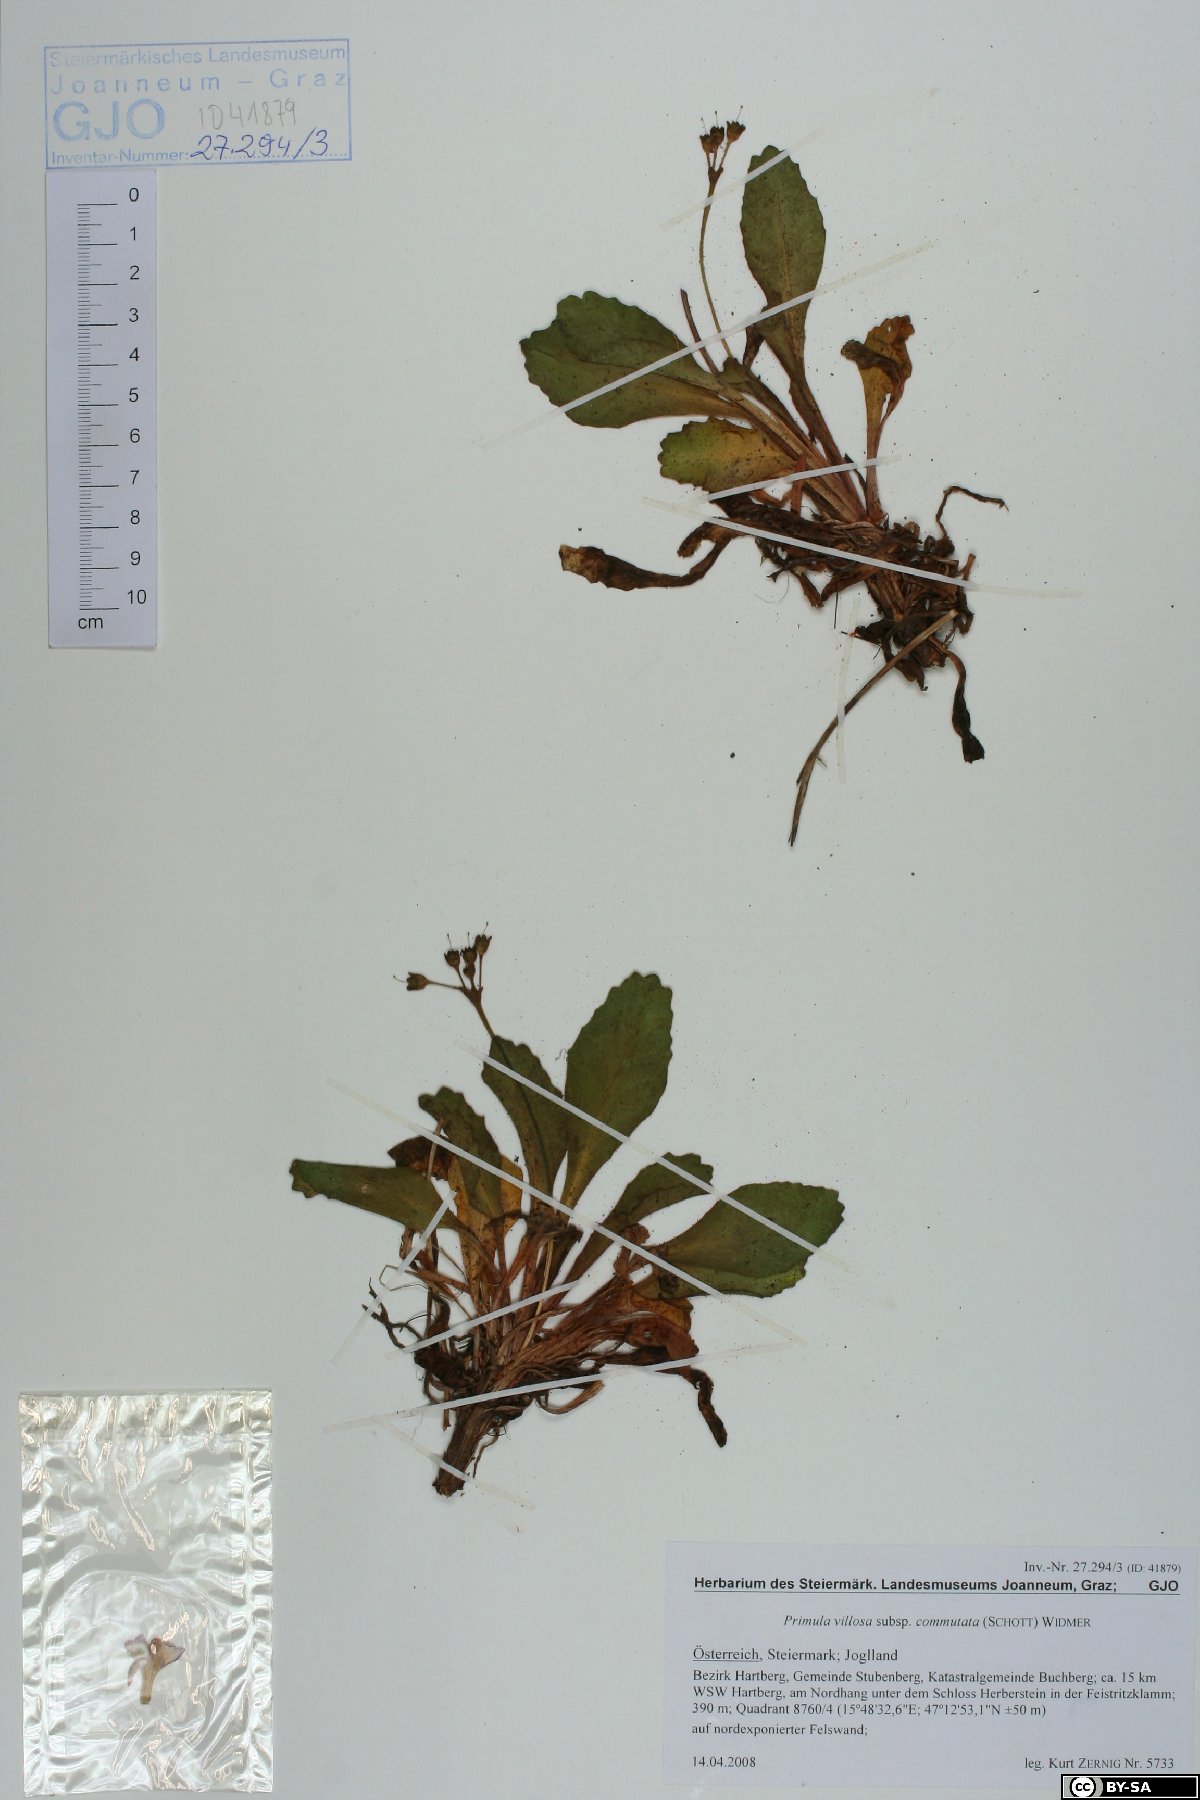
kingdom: Plantae
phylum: Tracheophyta
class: Magnoliopsida
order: Ericales
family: Primulaceae
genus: Primula
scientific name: Primula villosa
